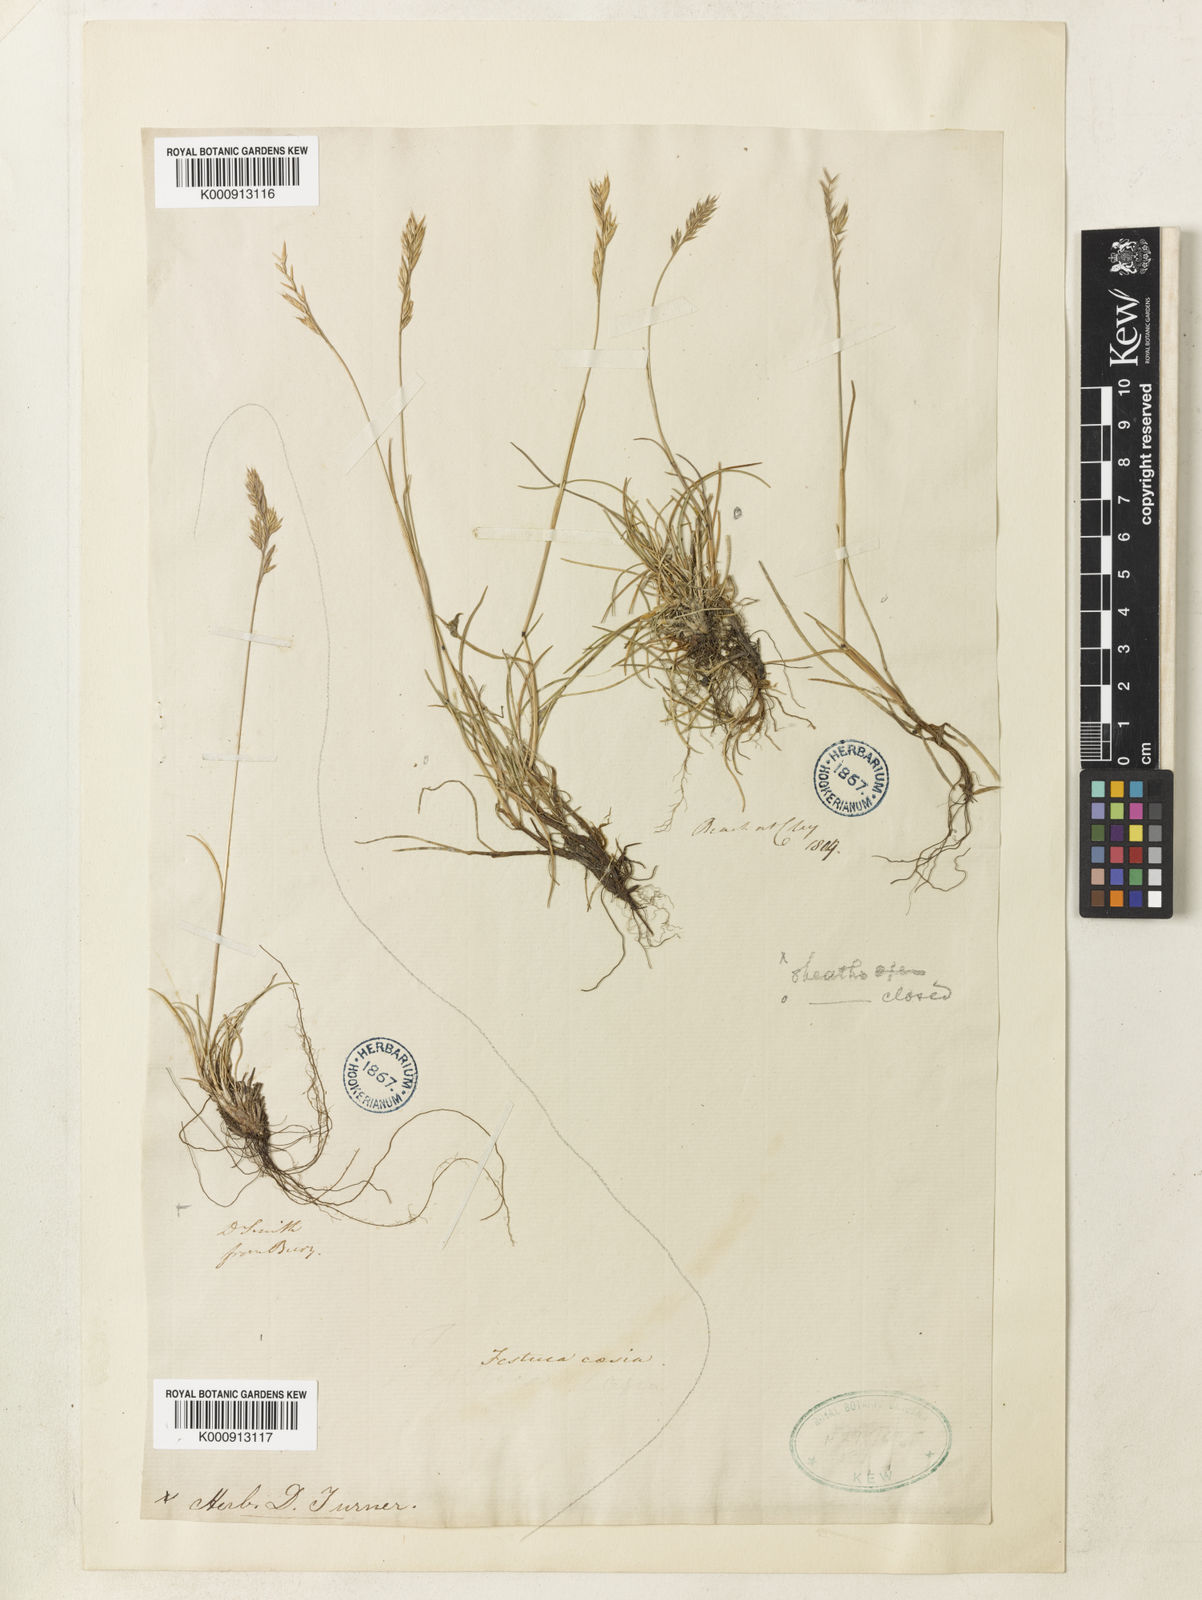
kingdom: Plantae
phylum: Tracheophyta
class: Liliopsida
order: Poales
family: Poaceae
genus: Festuca
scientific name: Festuca longifolia
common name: Blue fescue
